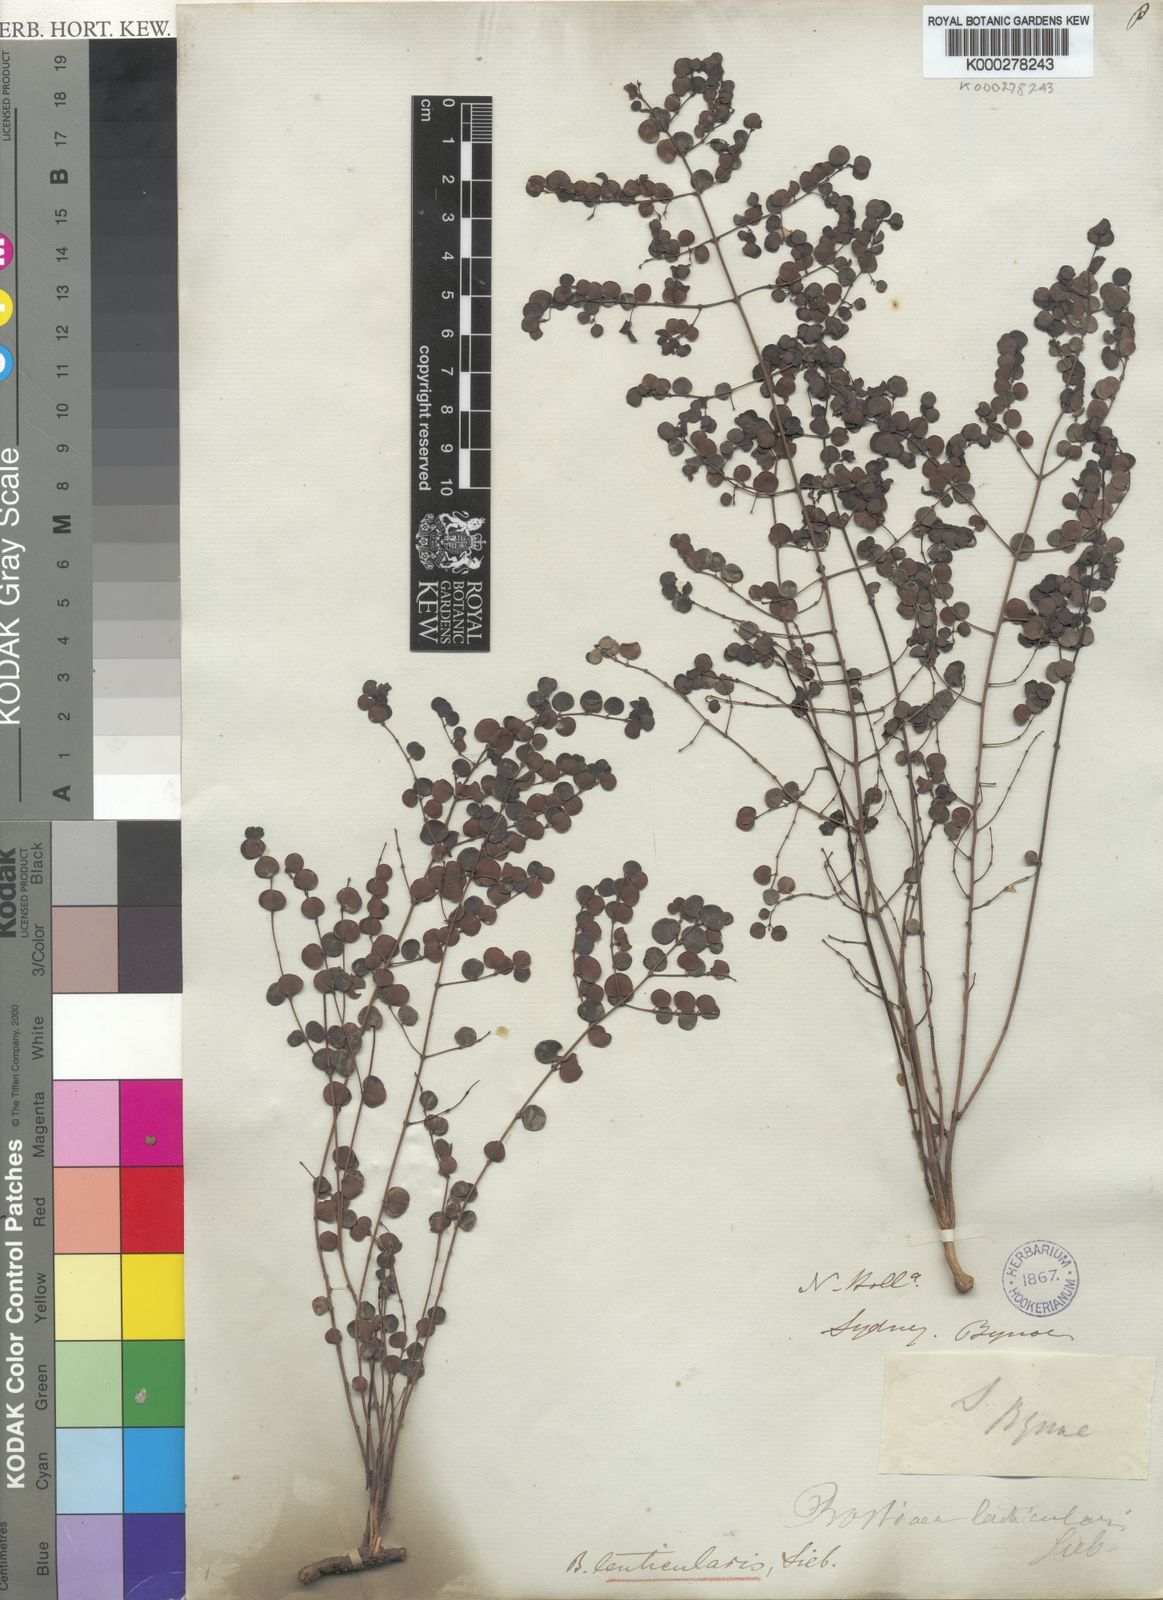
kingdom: Plantae
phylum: Tracheophyta
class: Magnoliopsida
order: Fabales
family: Fabaceae
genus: Bossiaea
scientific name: Bossiaea lenticularis
